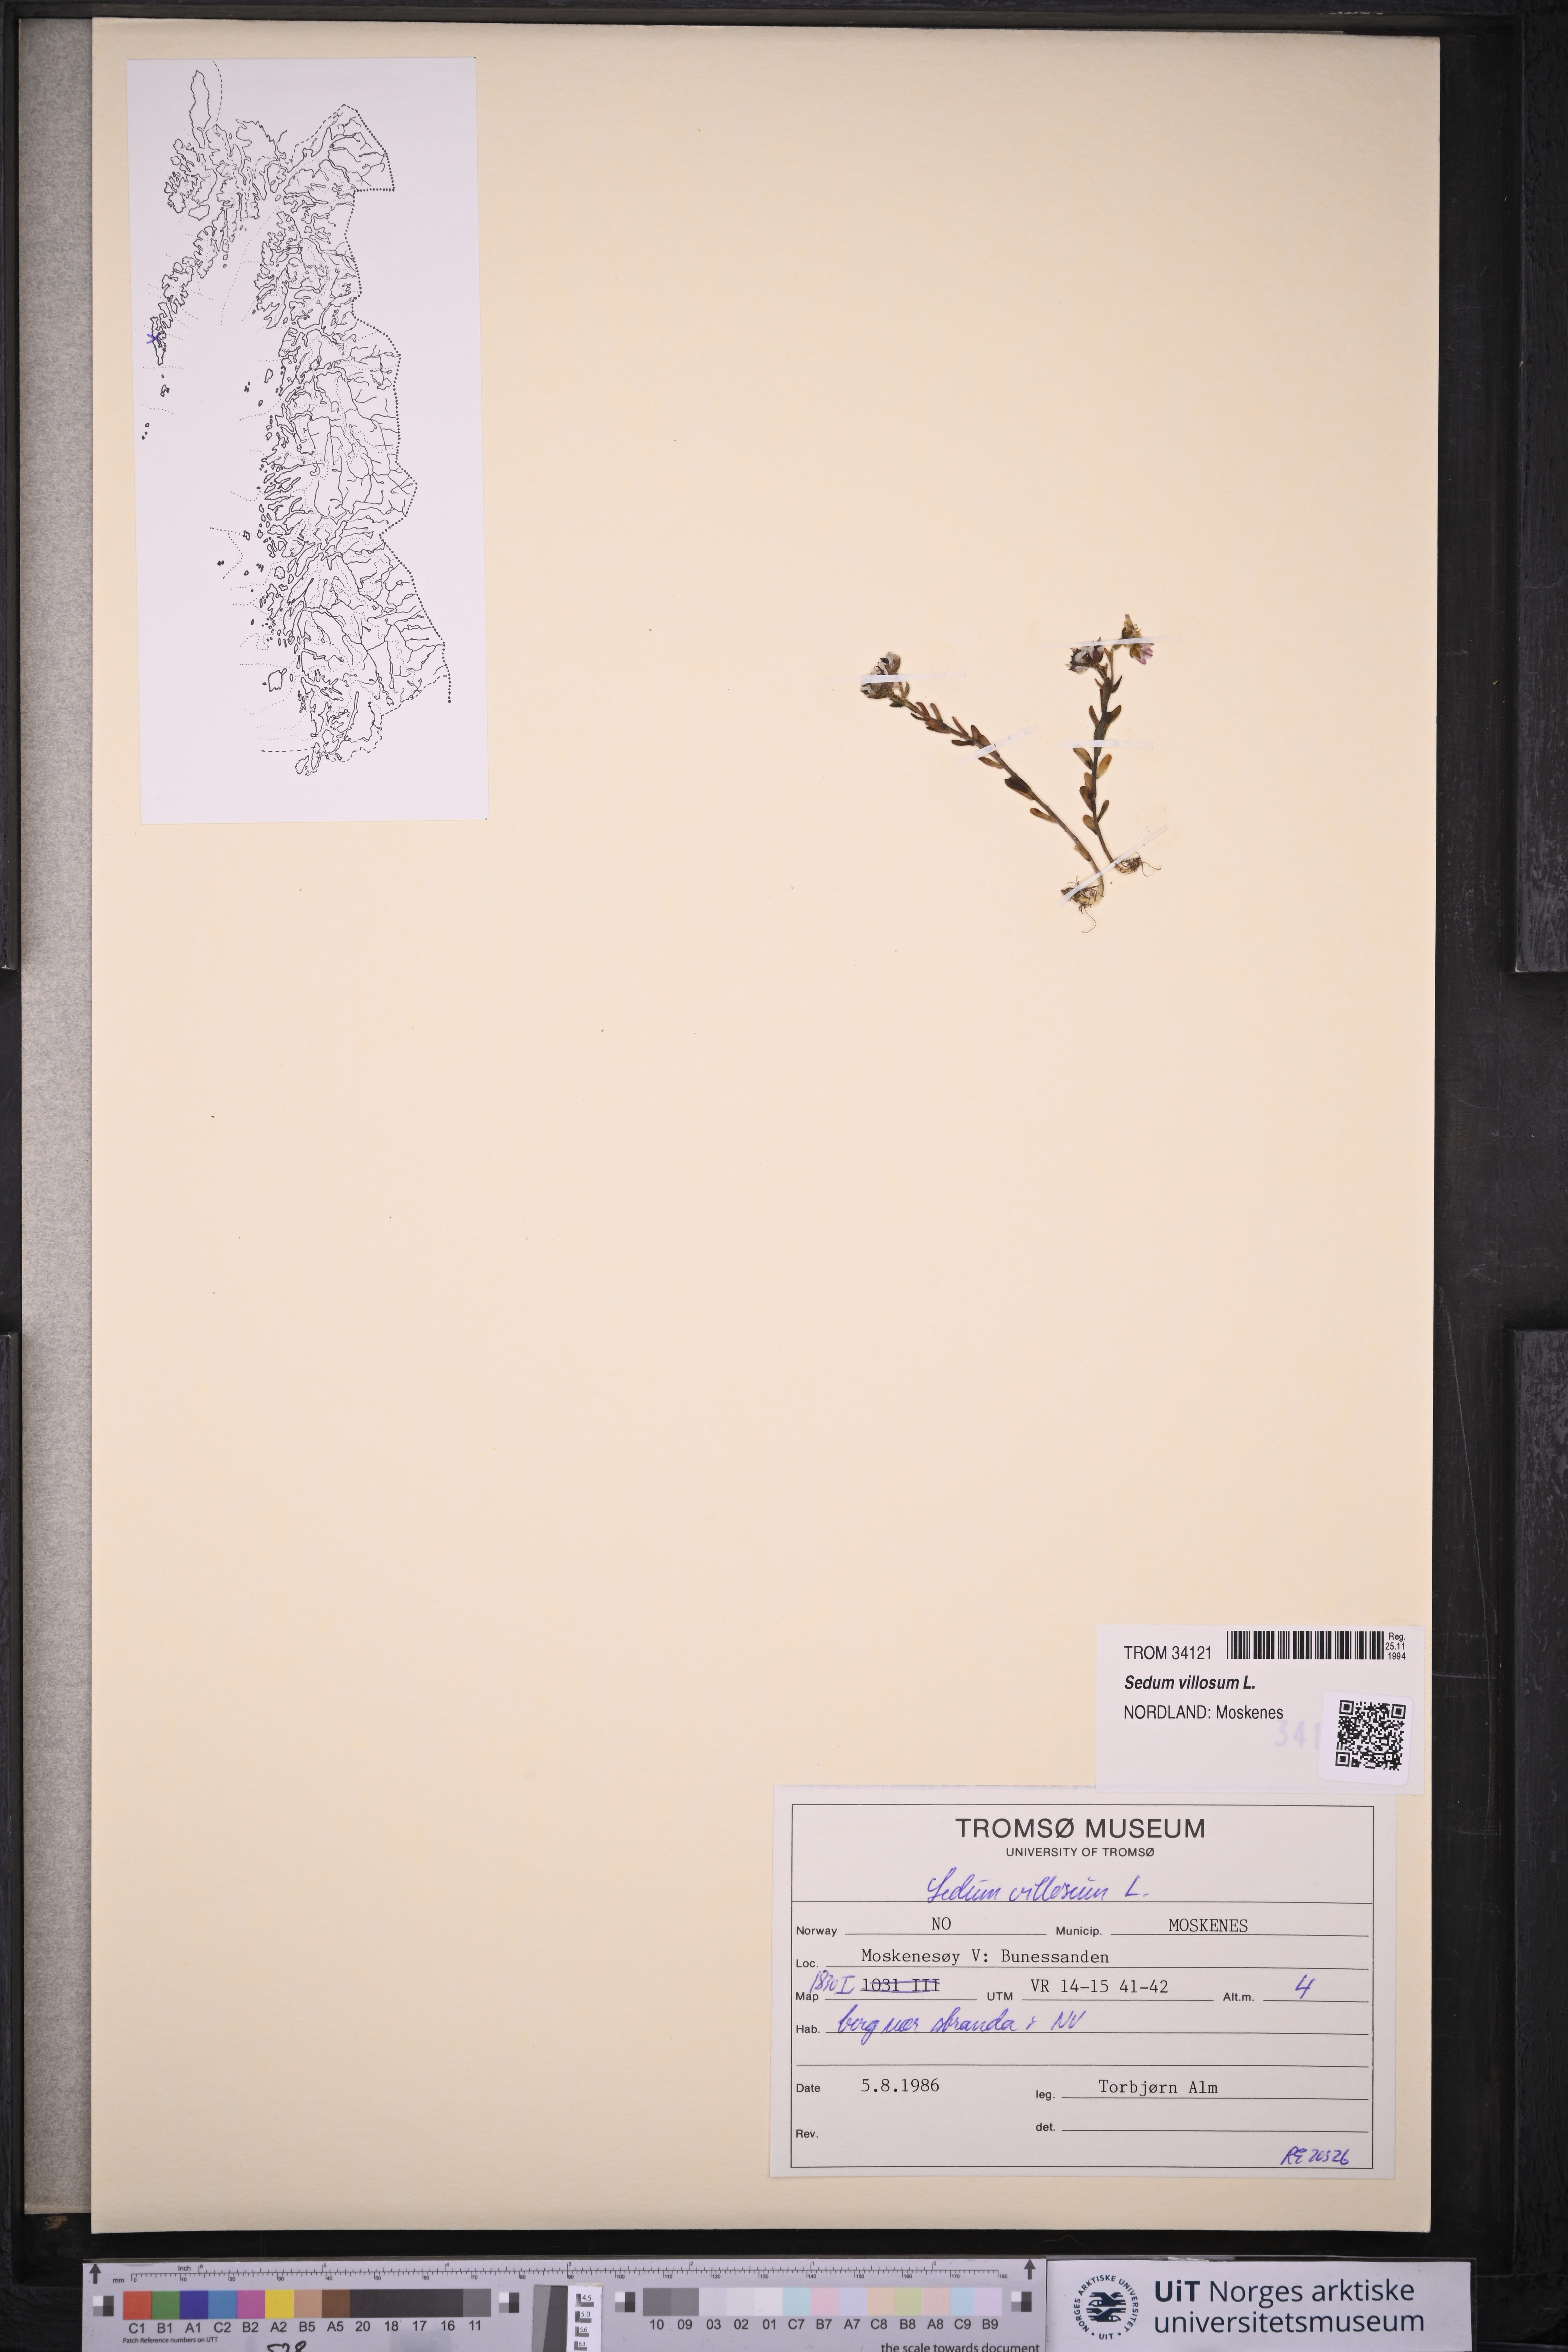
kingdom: Plantae
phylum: Tracheophyta
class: Magnoliopsida
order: Saxifragales
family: Crassulaceae
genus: Sedum
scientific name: Sedum villosum
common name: Hairy stonecrop
